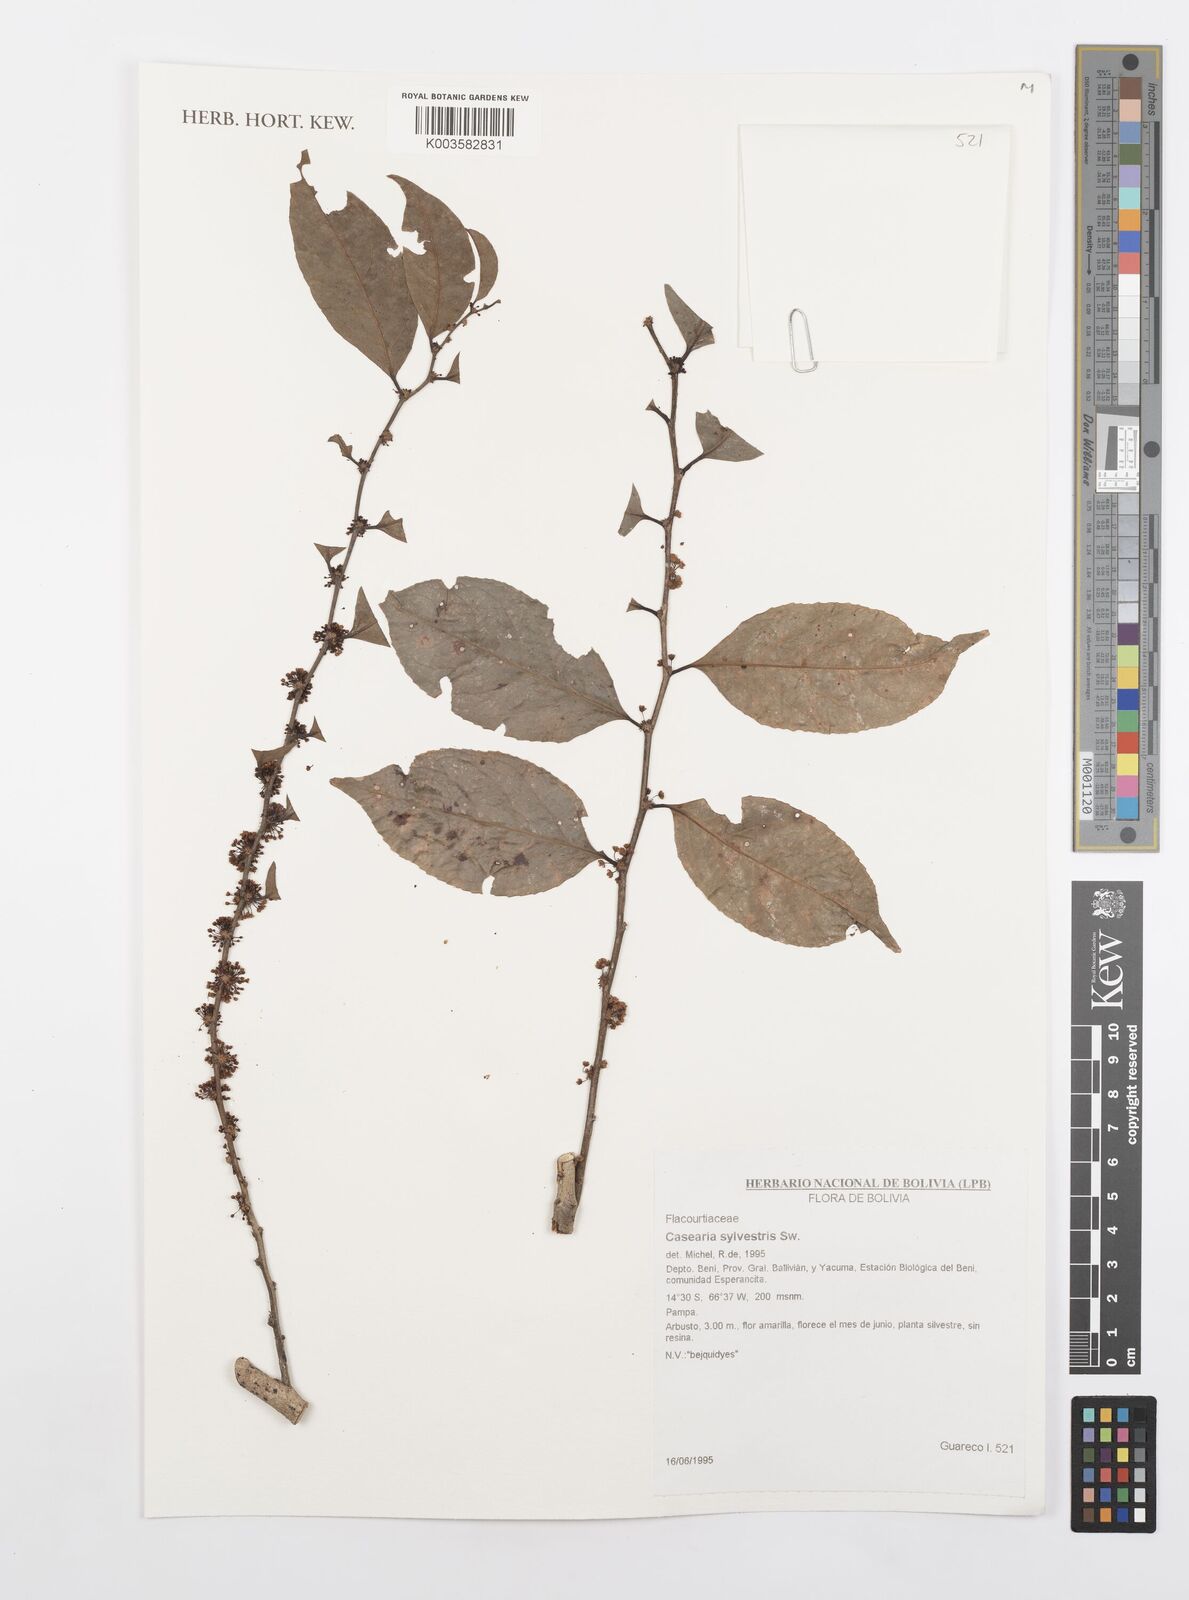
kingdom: Plantae
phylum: Tracheophyta
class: Magnoliopsida
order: Malpighiales
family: Salicaceae
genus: Casearia
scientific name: Casearia sylvestris
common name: Wild sage
